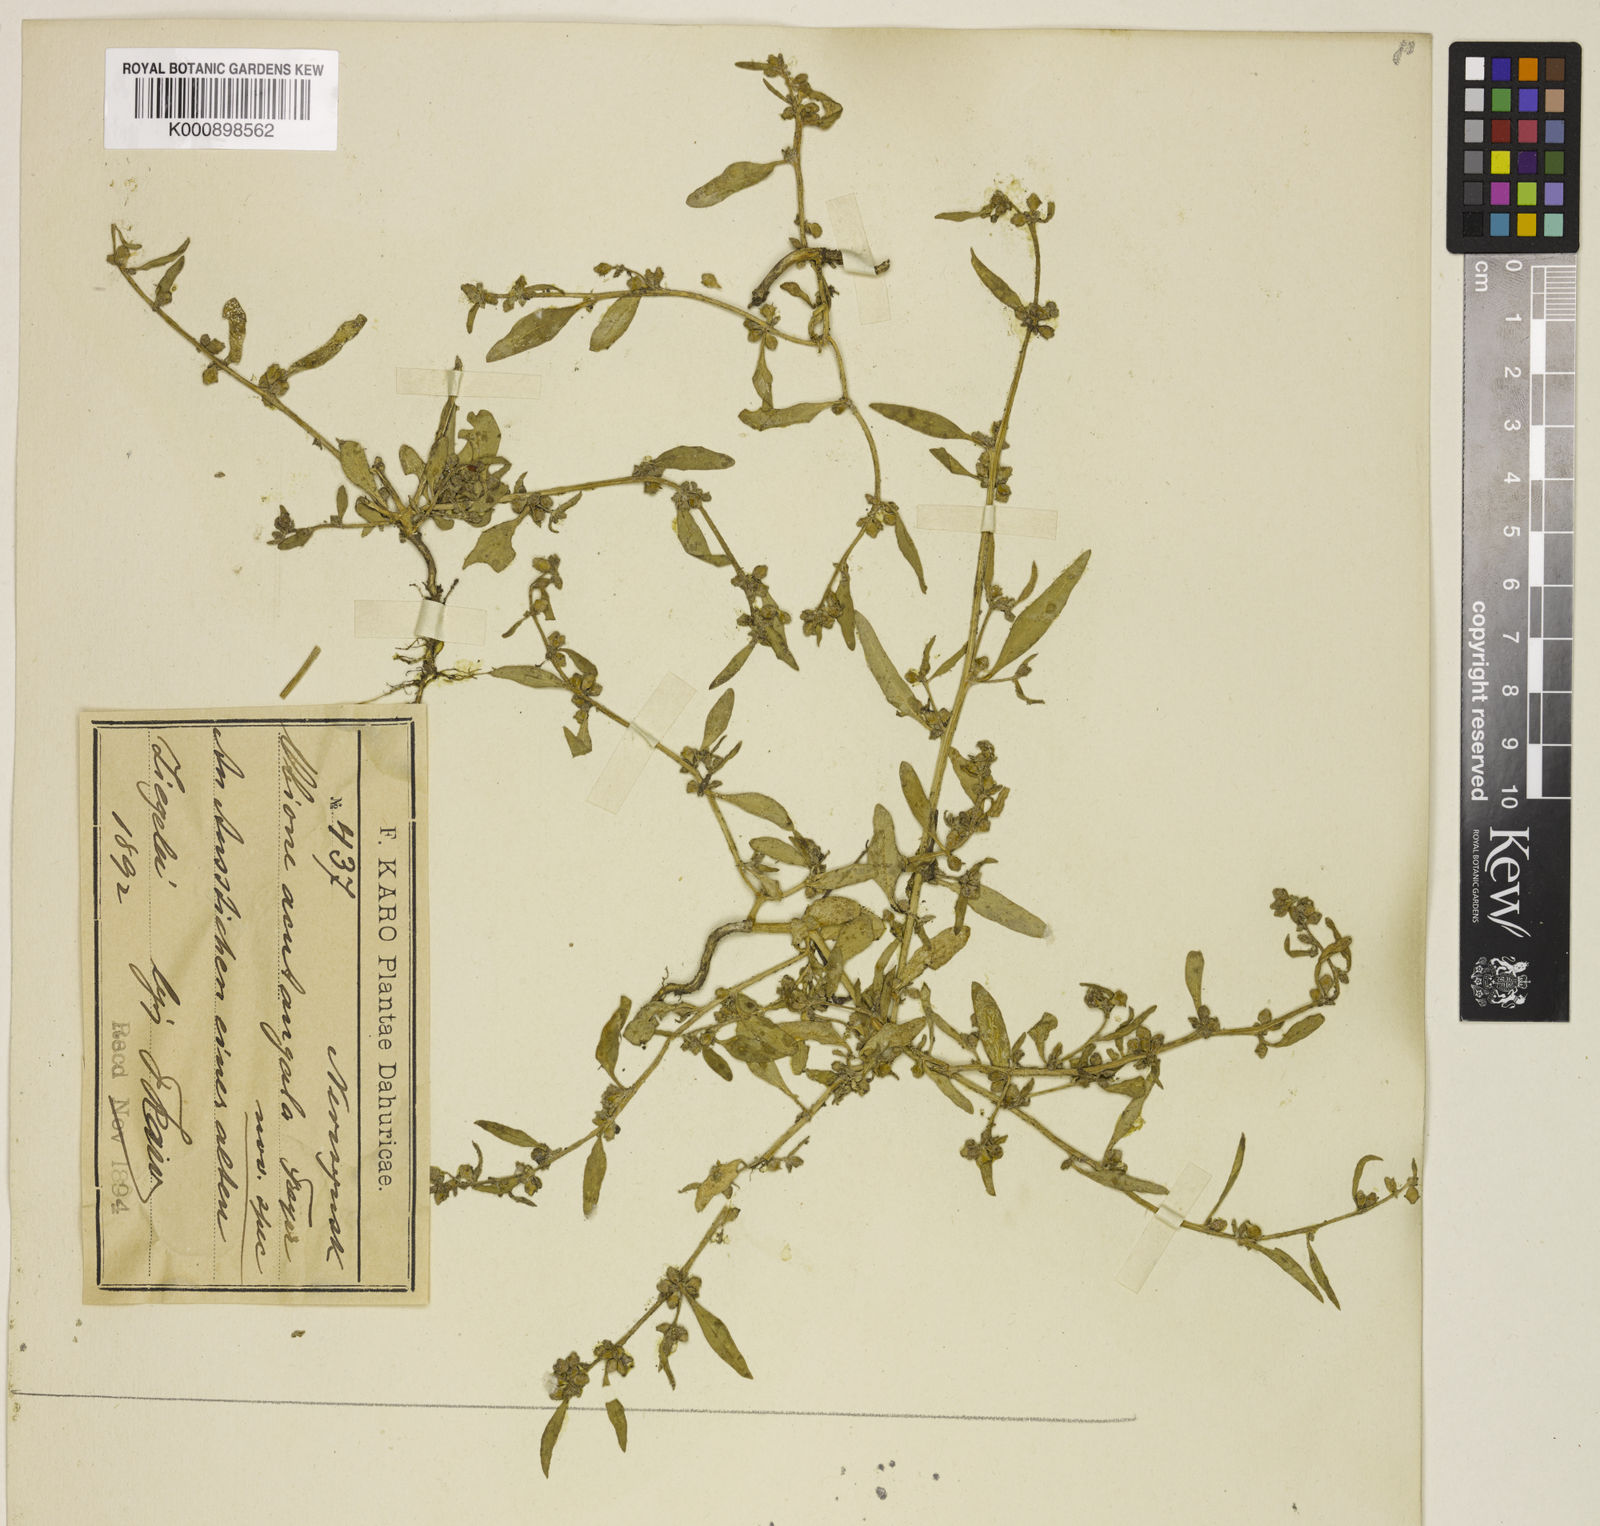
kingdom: Plantae
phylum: Tracheophyta
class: Magnoliopsida
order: Caryophyllales
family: Amaranthaceae
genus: Atriplex
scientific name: Atriplex
